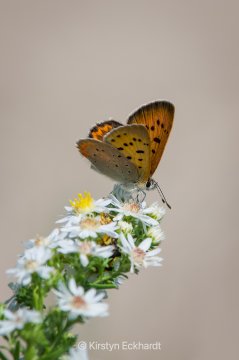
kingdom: Animalia
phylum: Arthropoda
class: Insecta
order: Lepidoptera
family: Sesiidae
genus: Sesia
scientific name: Sesia Lycaena helloides
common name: Purplish Copper
